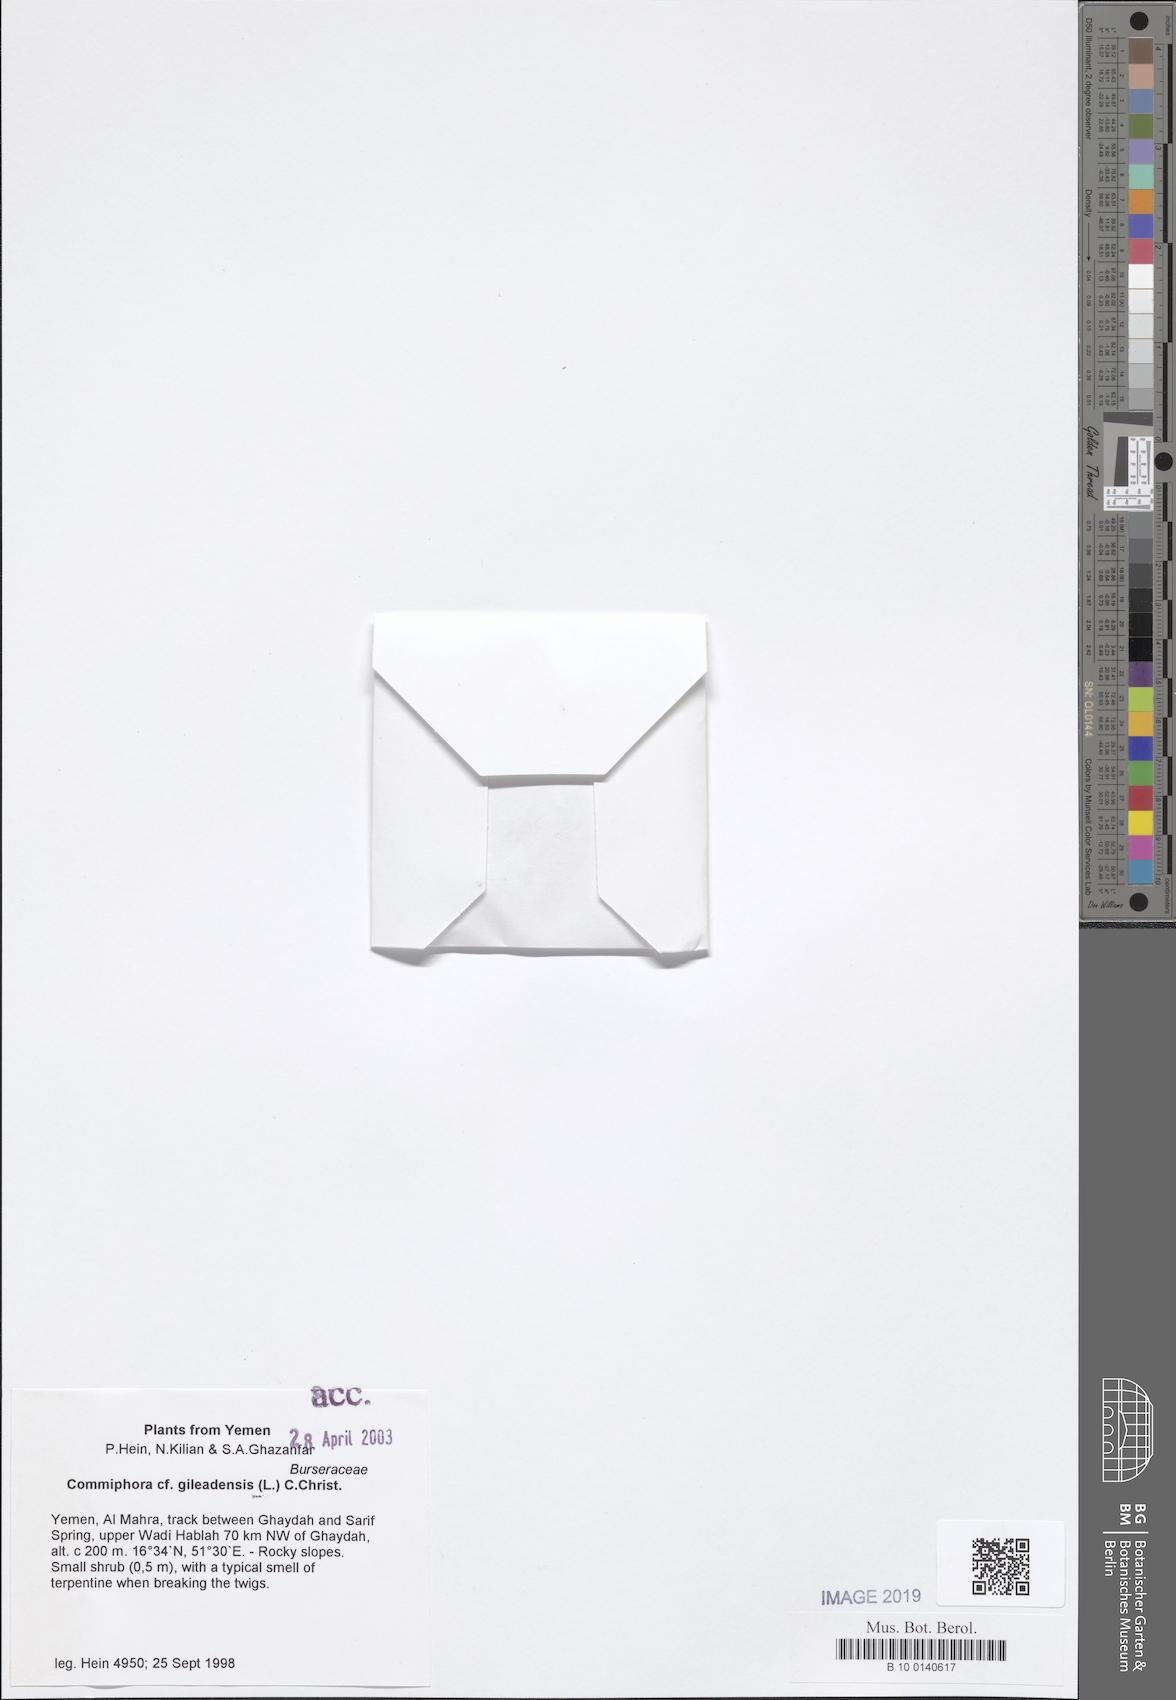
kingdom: Plantae
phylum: Tracheophyta
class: Magnoliopsida
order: Sapindales
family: Burseraceae
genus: Commiphora
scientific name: Commiphora gileadensis
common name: Balm-of-gilead
